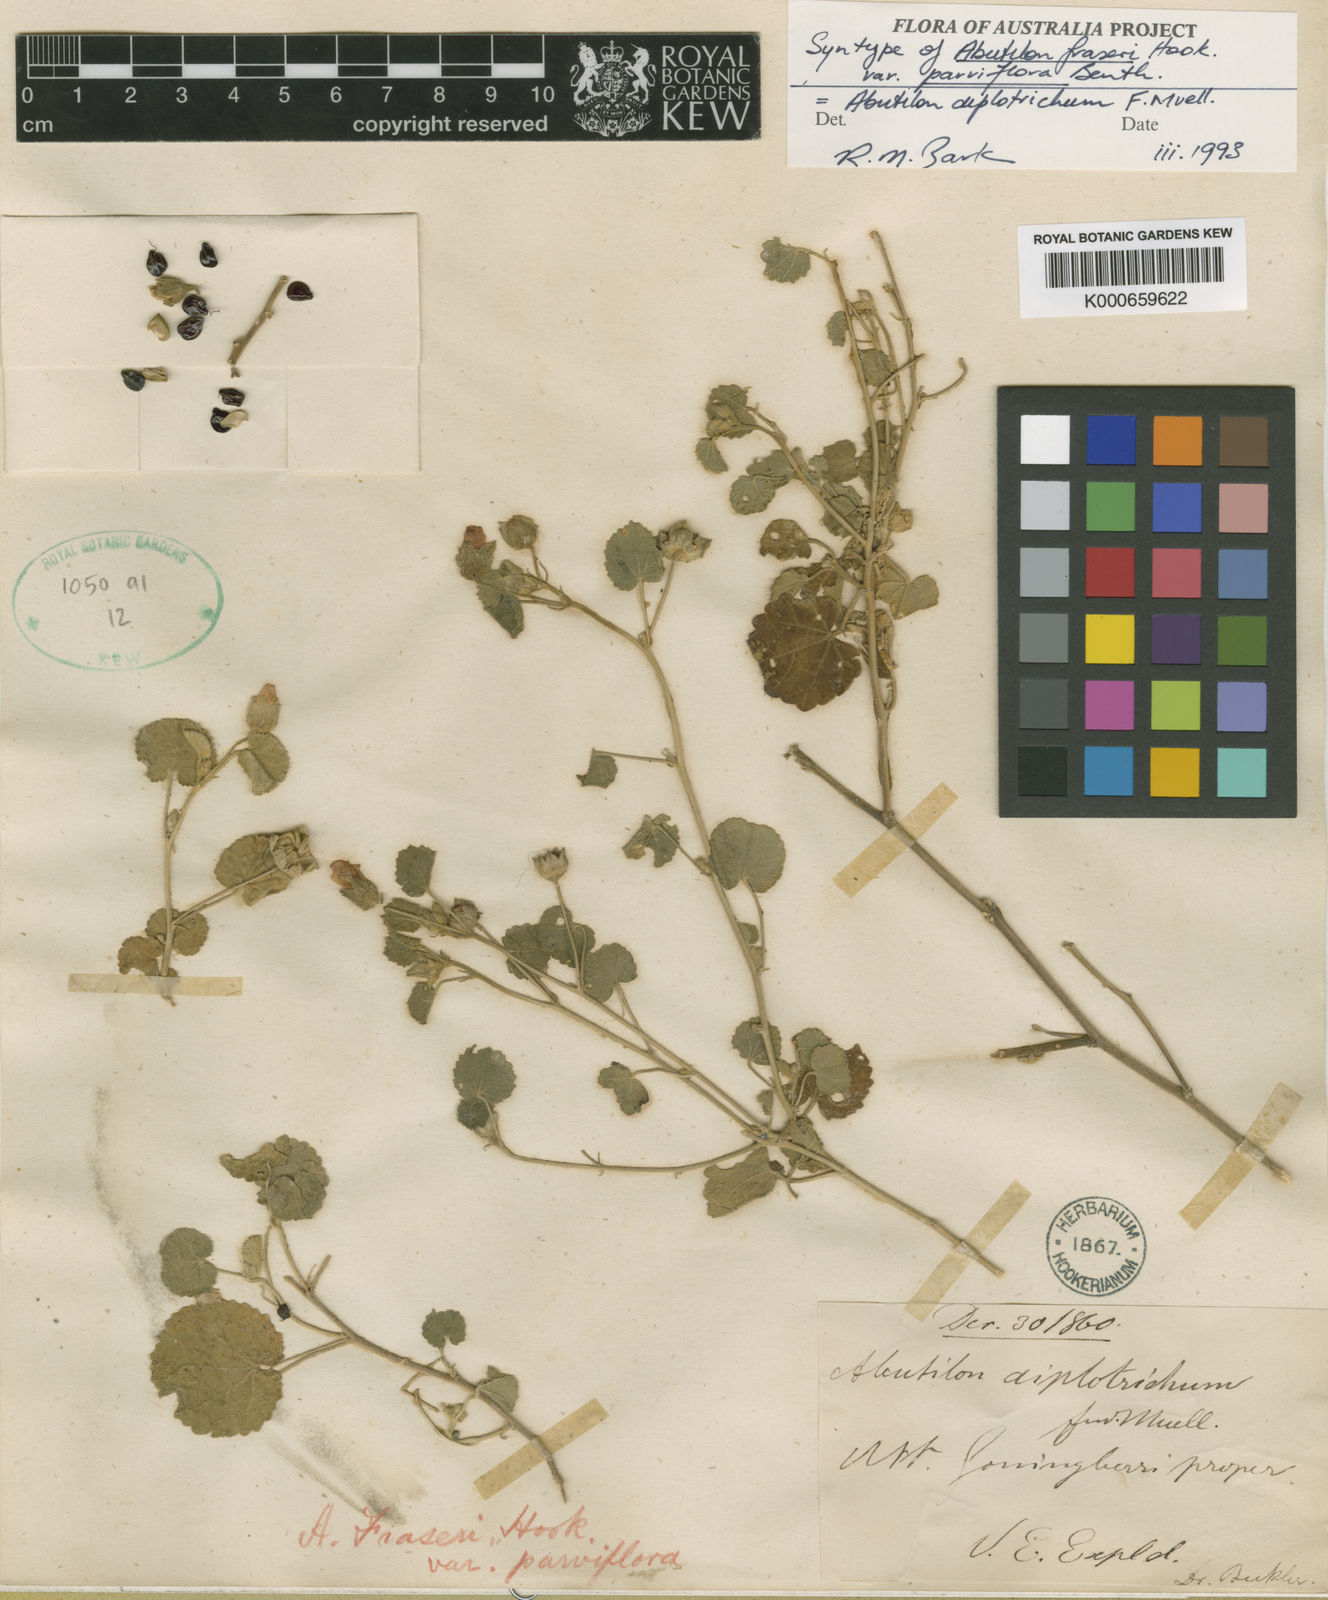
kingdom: Plantae
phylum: Tracheophyta
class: Magnoliopsida
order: Malvales
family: Malvaceae
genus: Abutilon
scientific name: Abutilon fraseri
